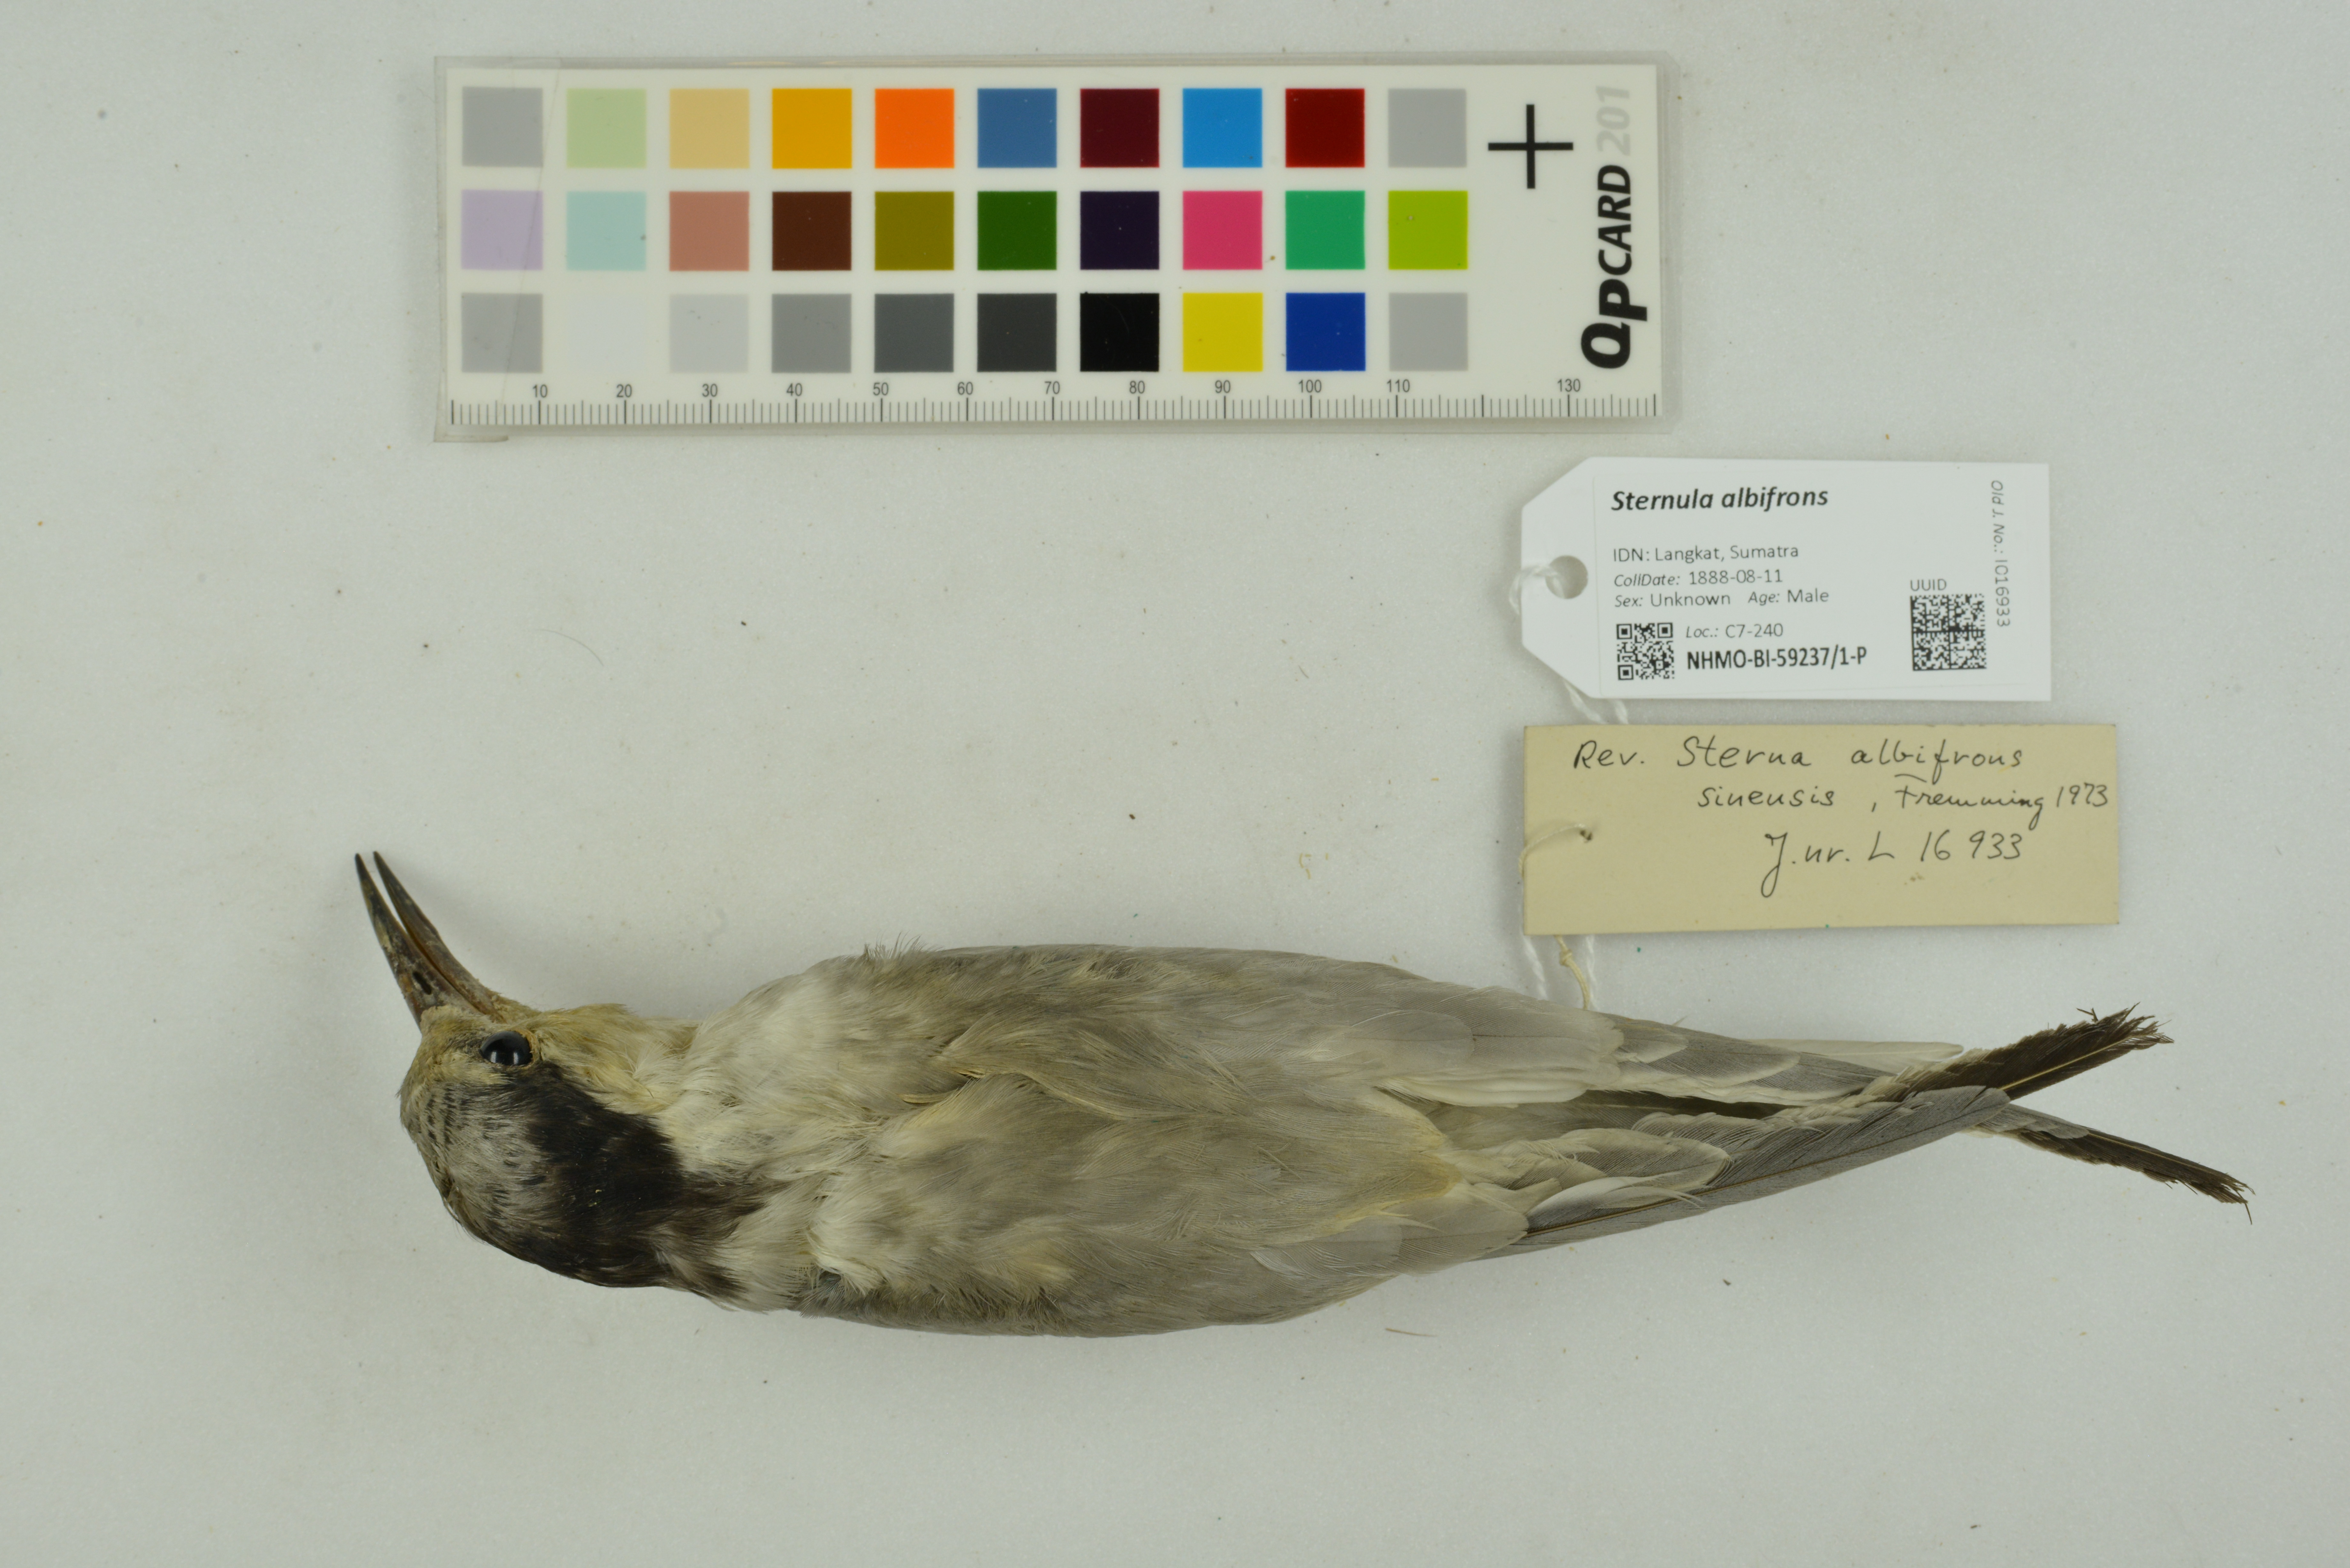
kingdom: Animalia
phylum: Chordata
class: Aves
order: Charadriiformes
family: Laridae
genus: Sternula
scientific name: Sternula albifrons
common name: Little tern
